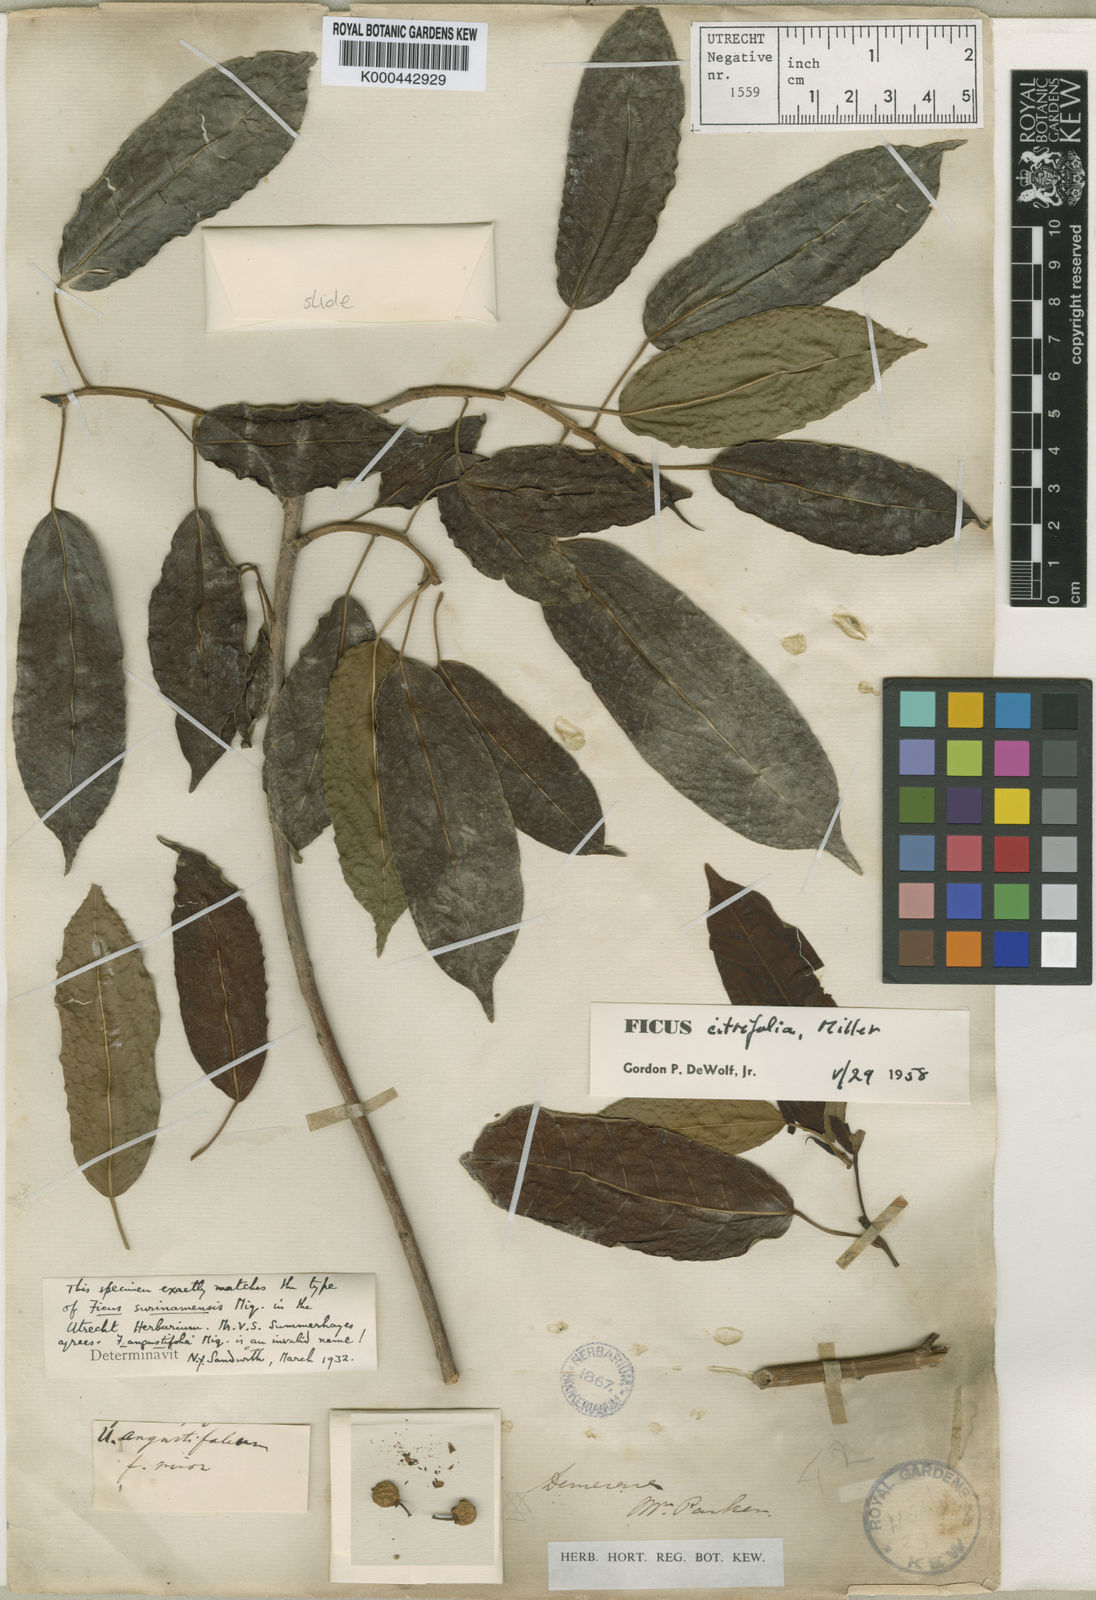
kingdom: Plantae
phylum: Tracheophyta
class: Magnoliopsida
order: Rosales
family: Moraceae
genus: Ficus
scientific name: Ficus amazonica
